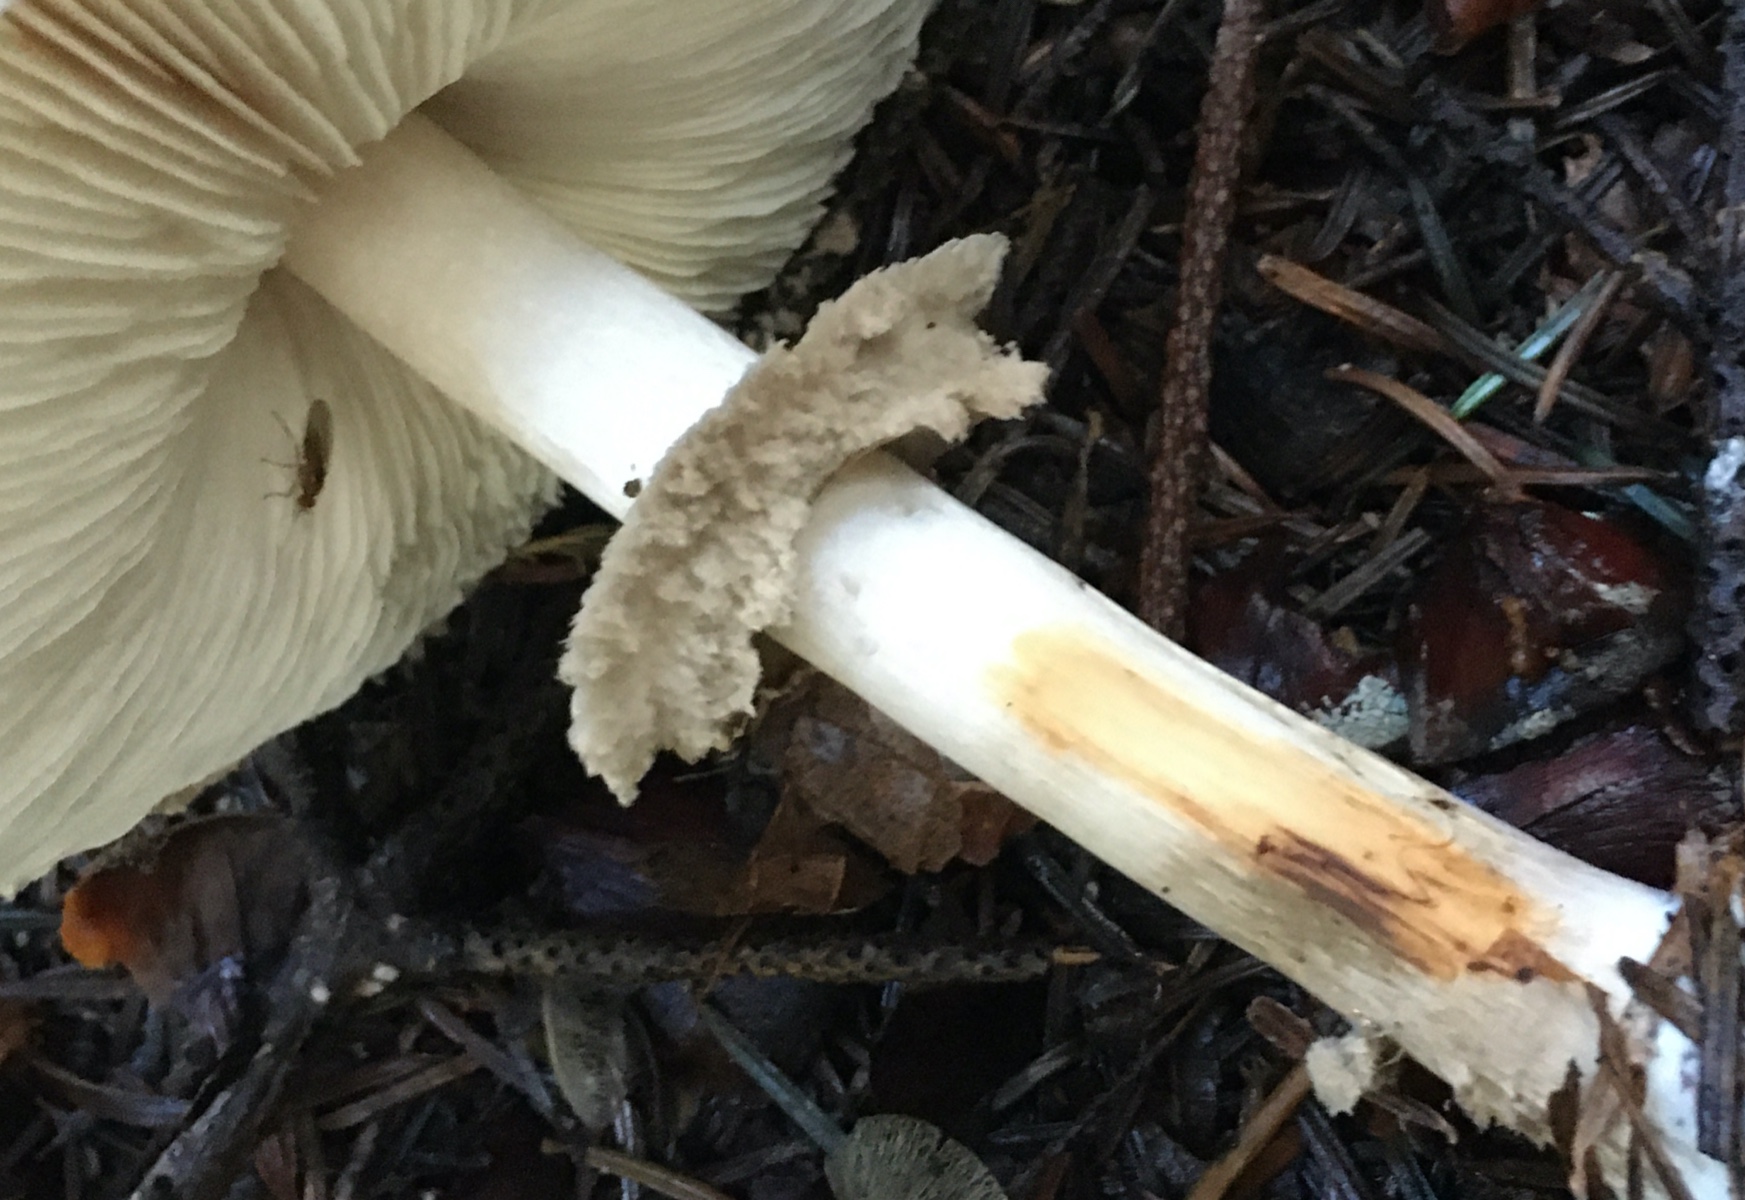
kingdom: Fungi
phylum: Basidiomycota
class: Agaricomycetes
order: Agaricales
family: Agaricaceae
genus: Chlorophyllum
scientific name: Chlorophyllum olivieri
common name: almindelig rabarberhat
